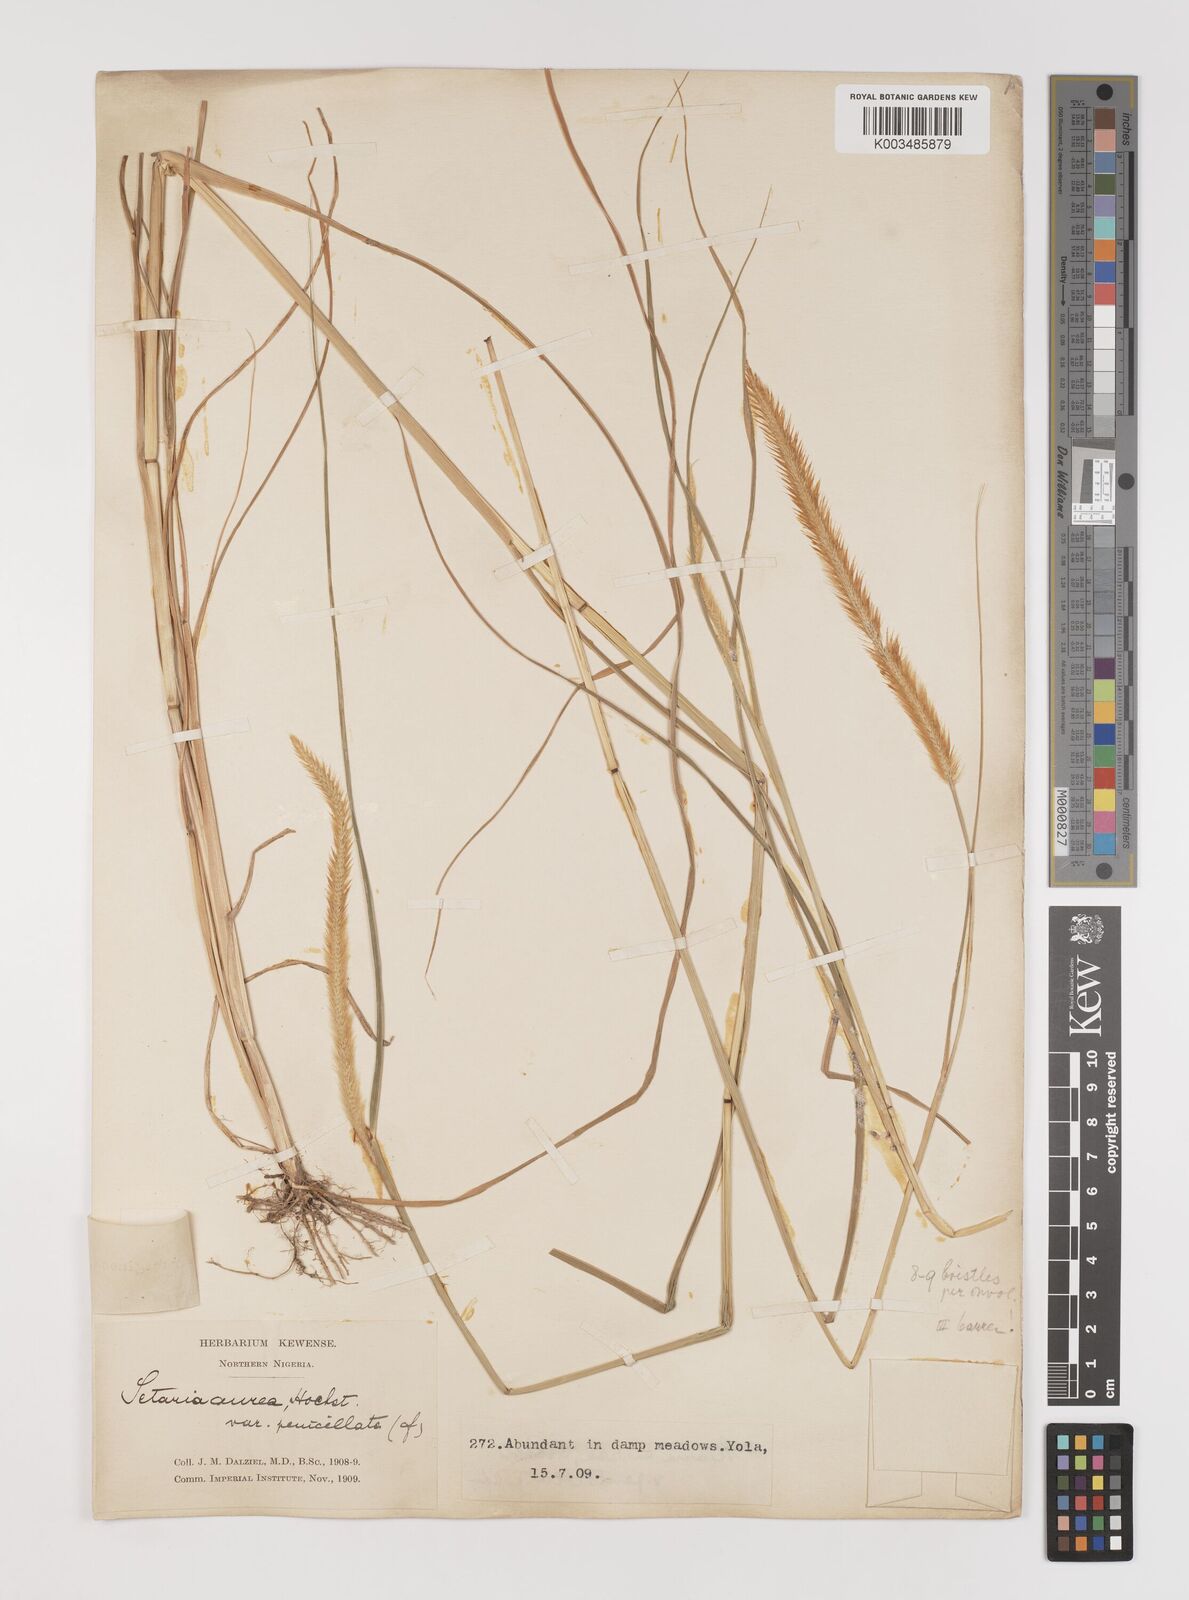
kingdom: Plantae
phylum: Tracheophyta
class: Liliopsida
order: Poales
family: Poaceae
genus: Setaria
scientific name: Setaria sphacelata
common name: African bristlegrass
